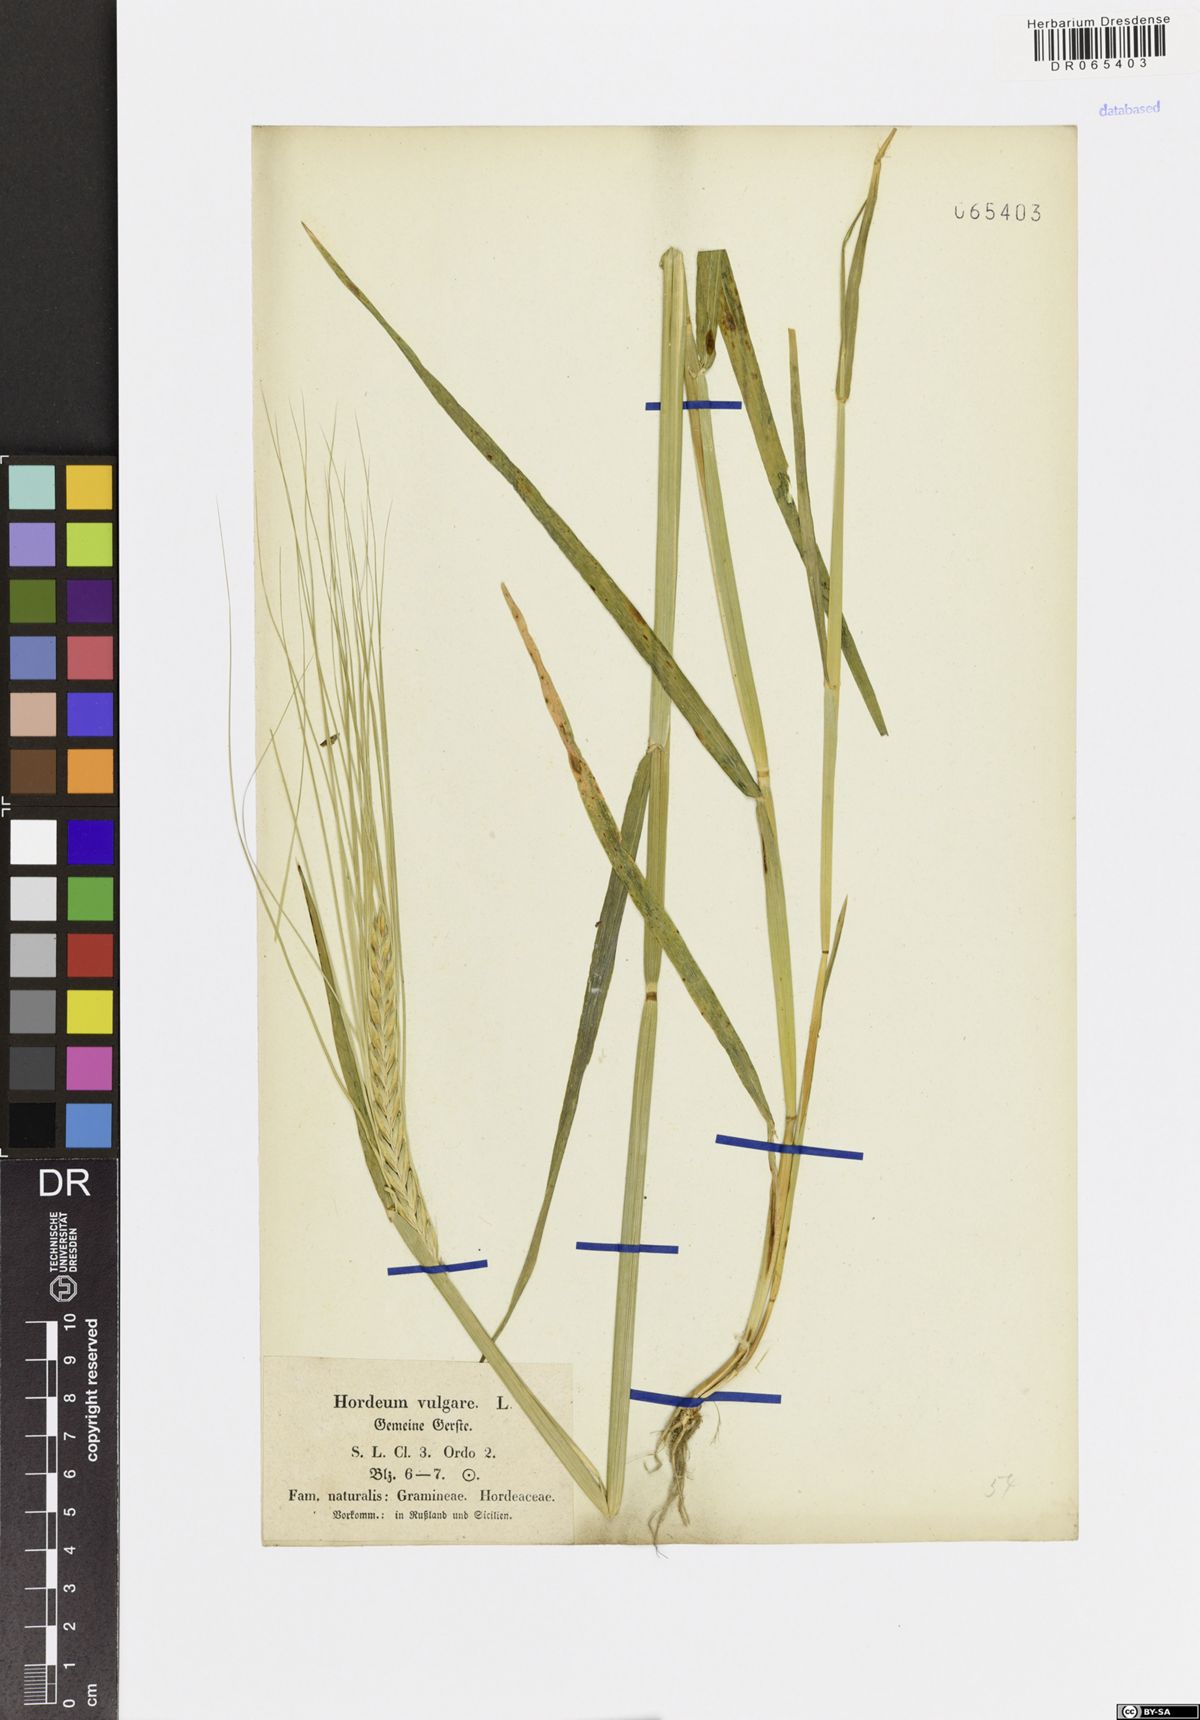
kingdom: Plantae
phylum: Tracheophyta
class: Liliopsida
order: Poales
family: Poaceae
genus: Hordeum
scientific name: Hordeum vulgare
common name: Common barley
